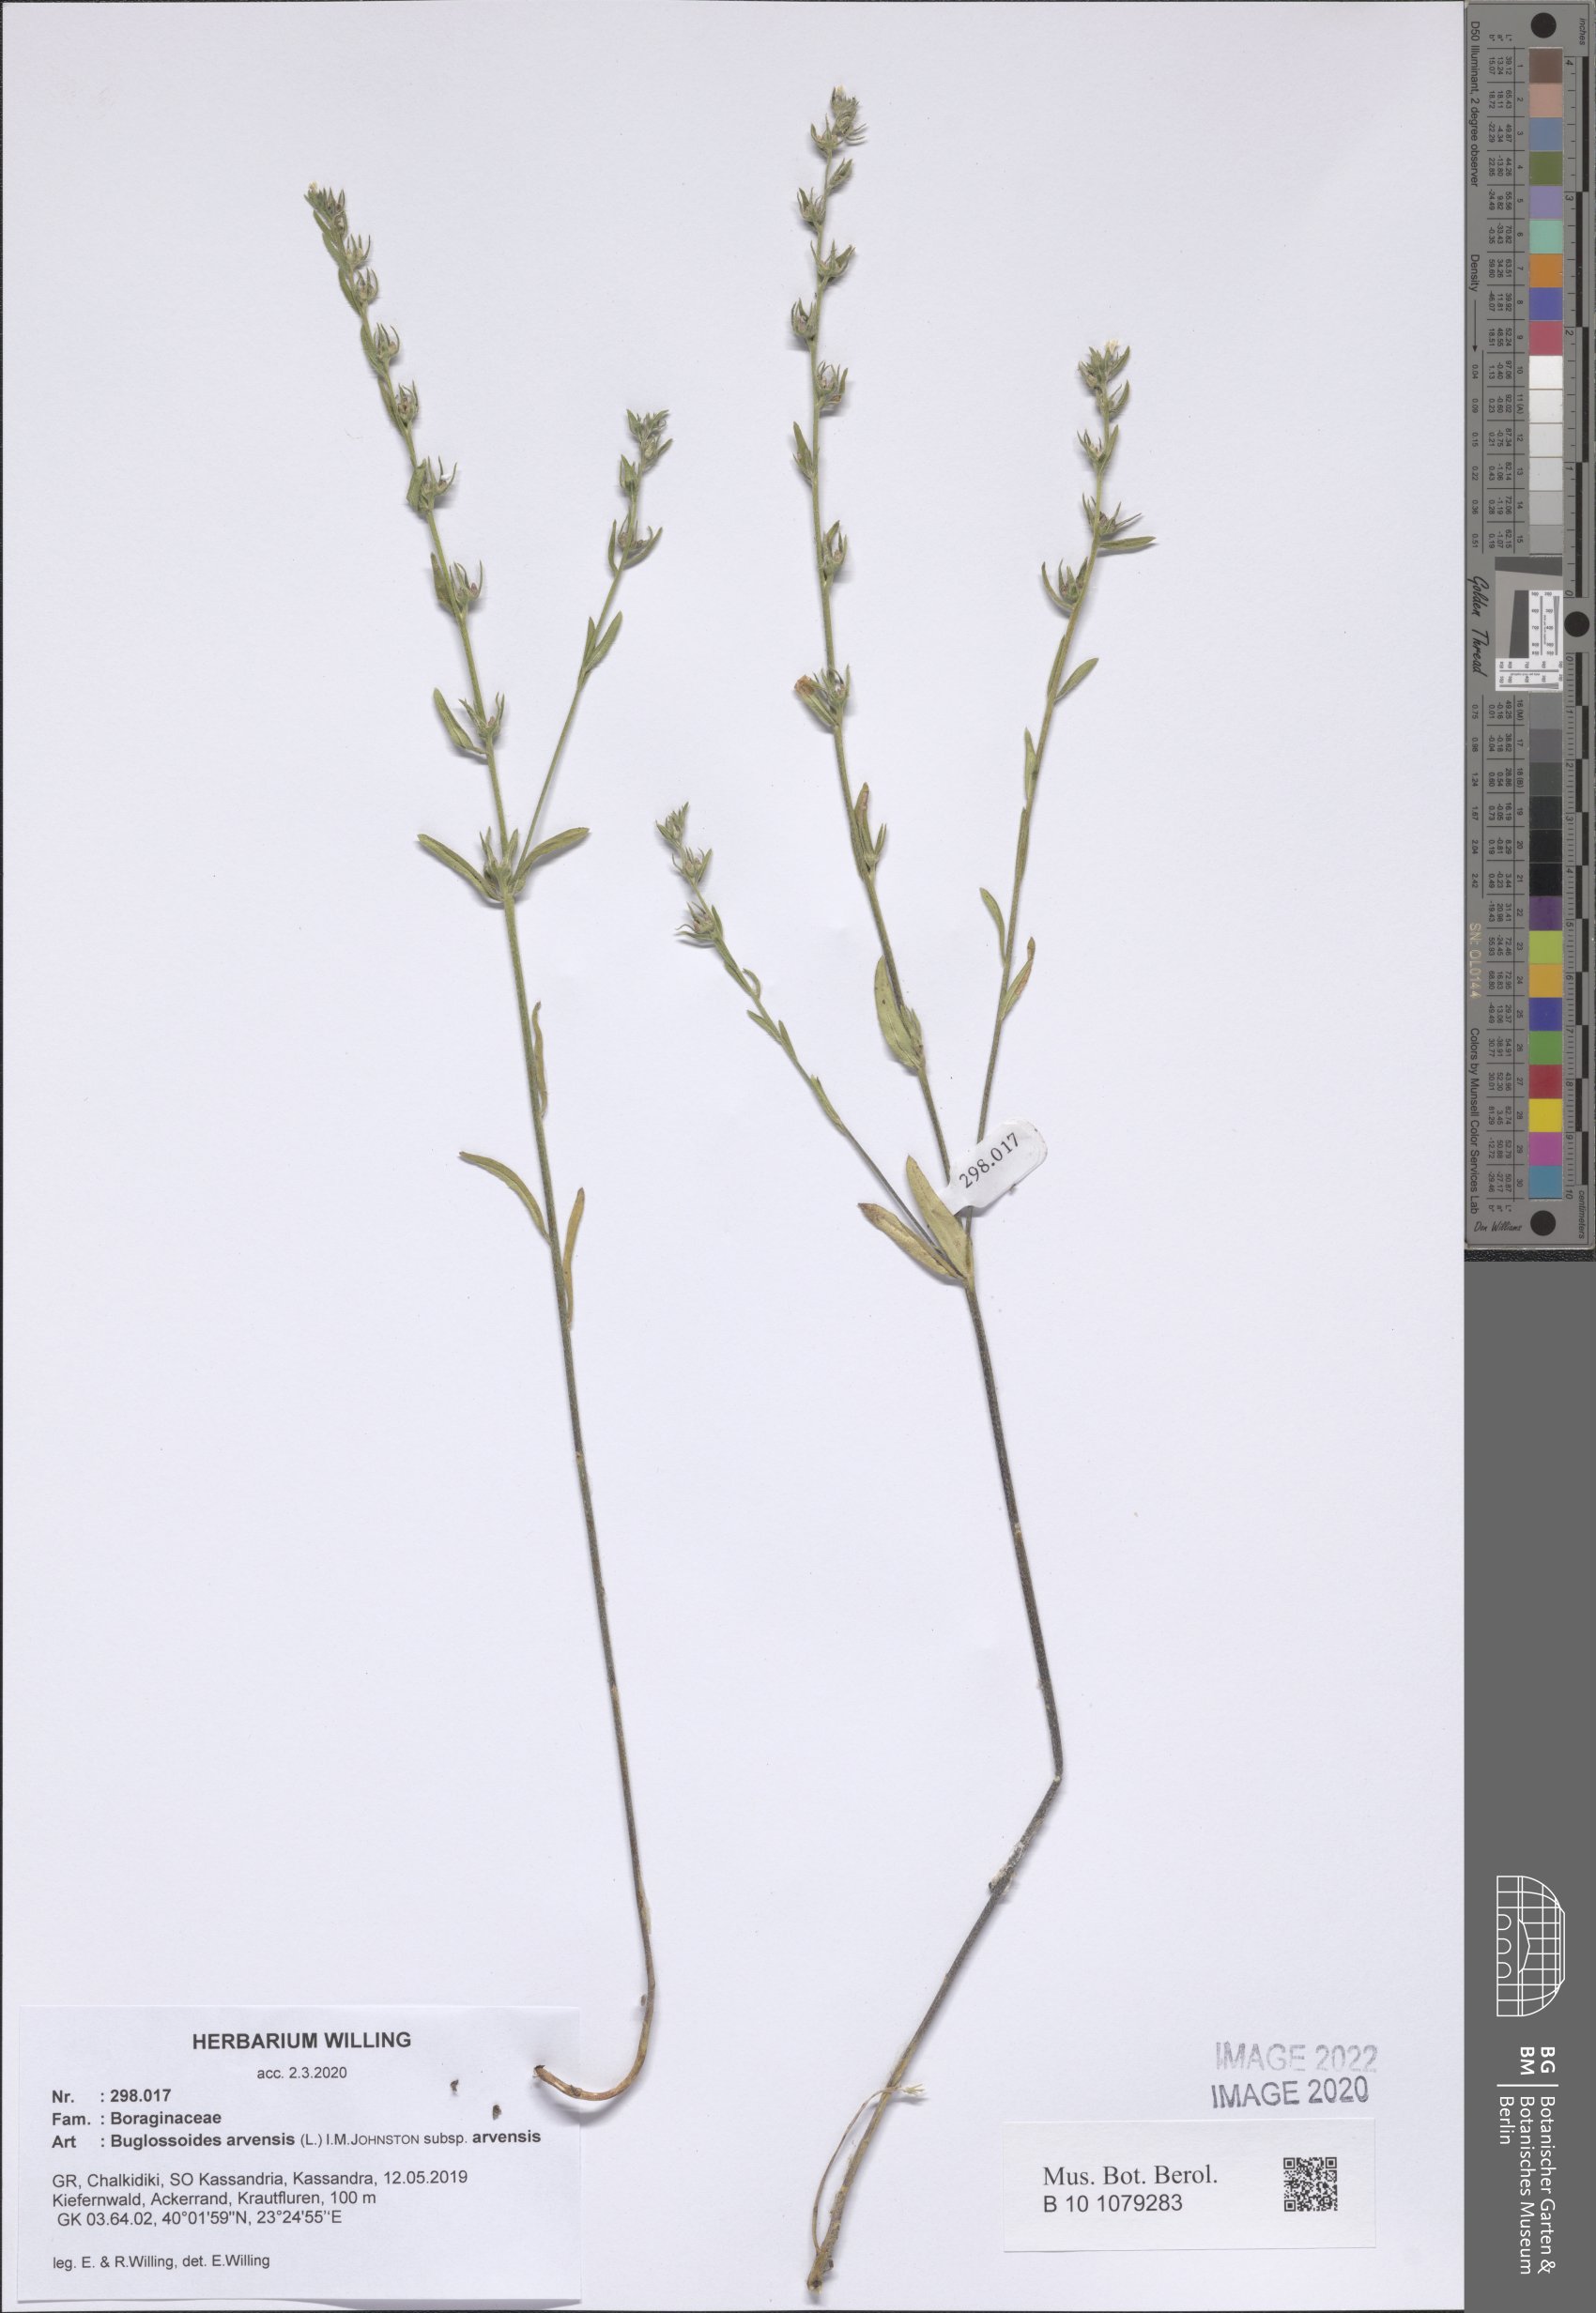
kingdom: Plantae
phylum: Tracheophyta
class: Magnoliopsida
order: Boraginales
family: Boraginaceae
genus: Buglossoides
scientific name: Buglossoides arvensis
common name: Corn gromwell
